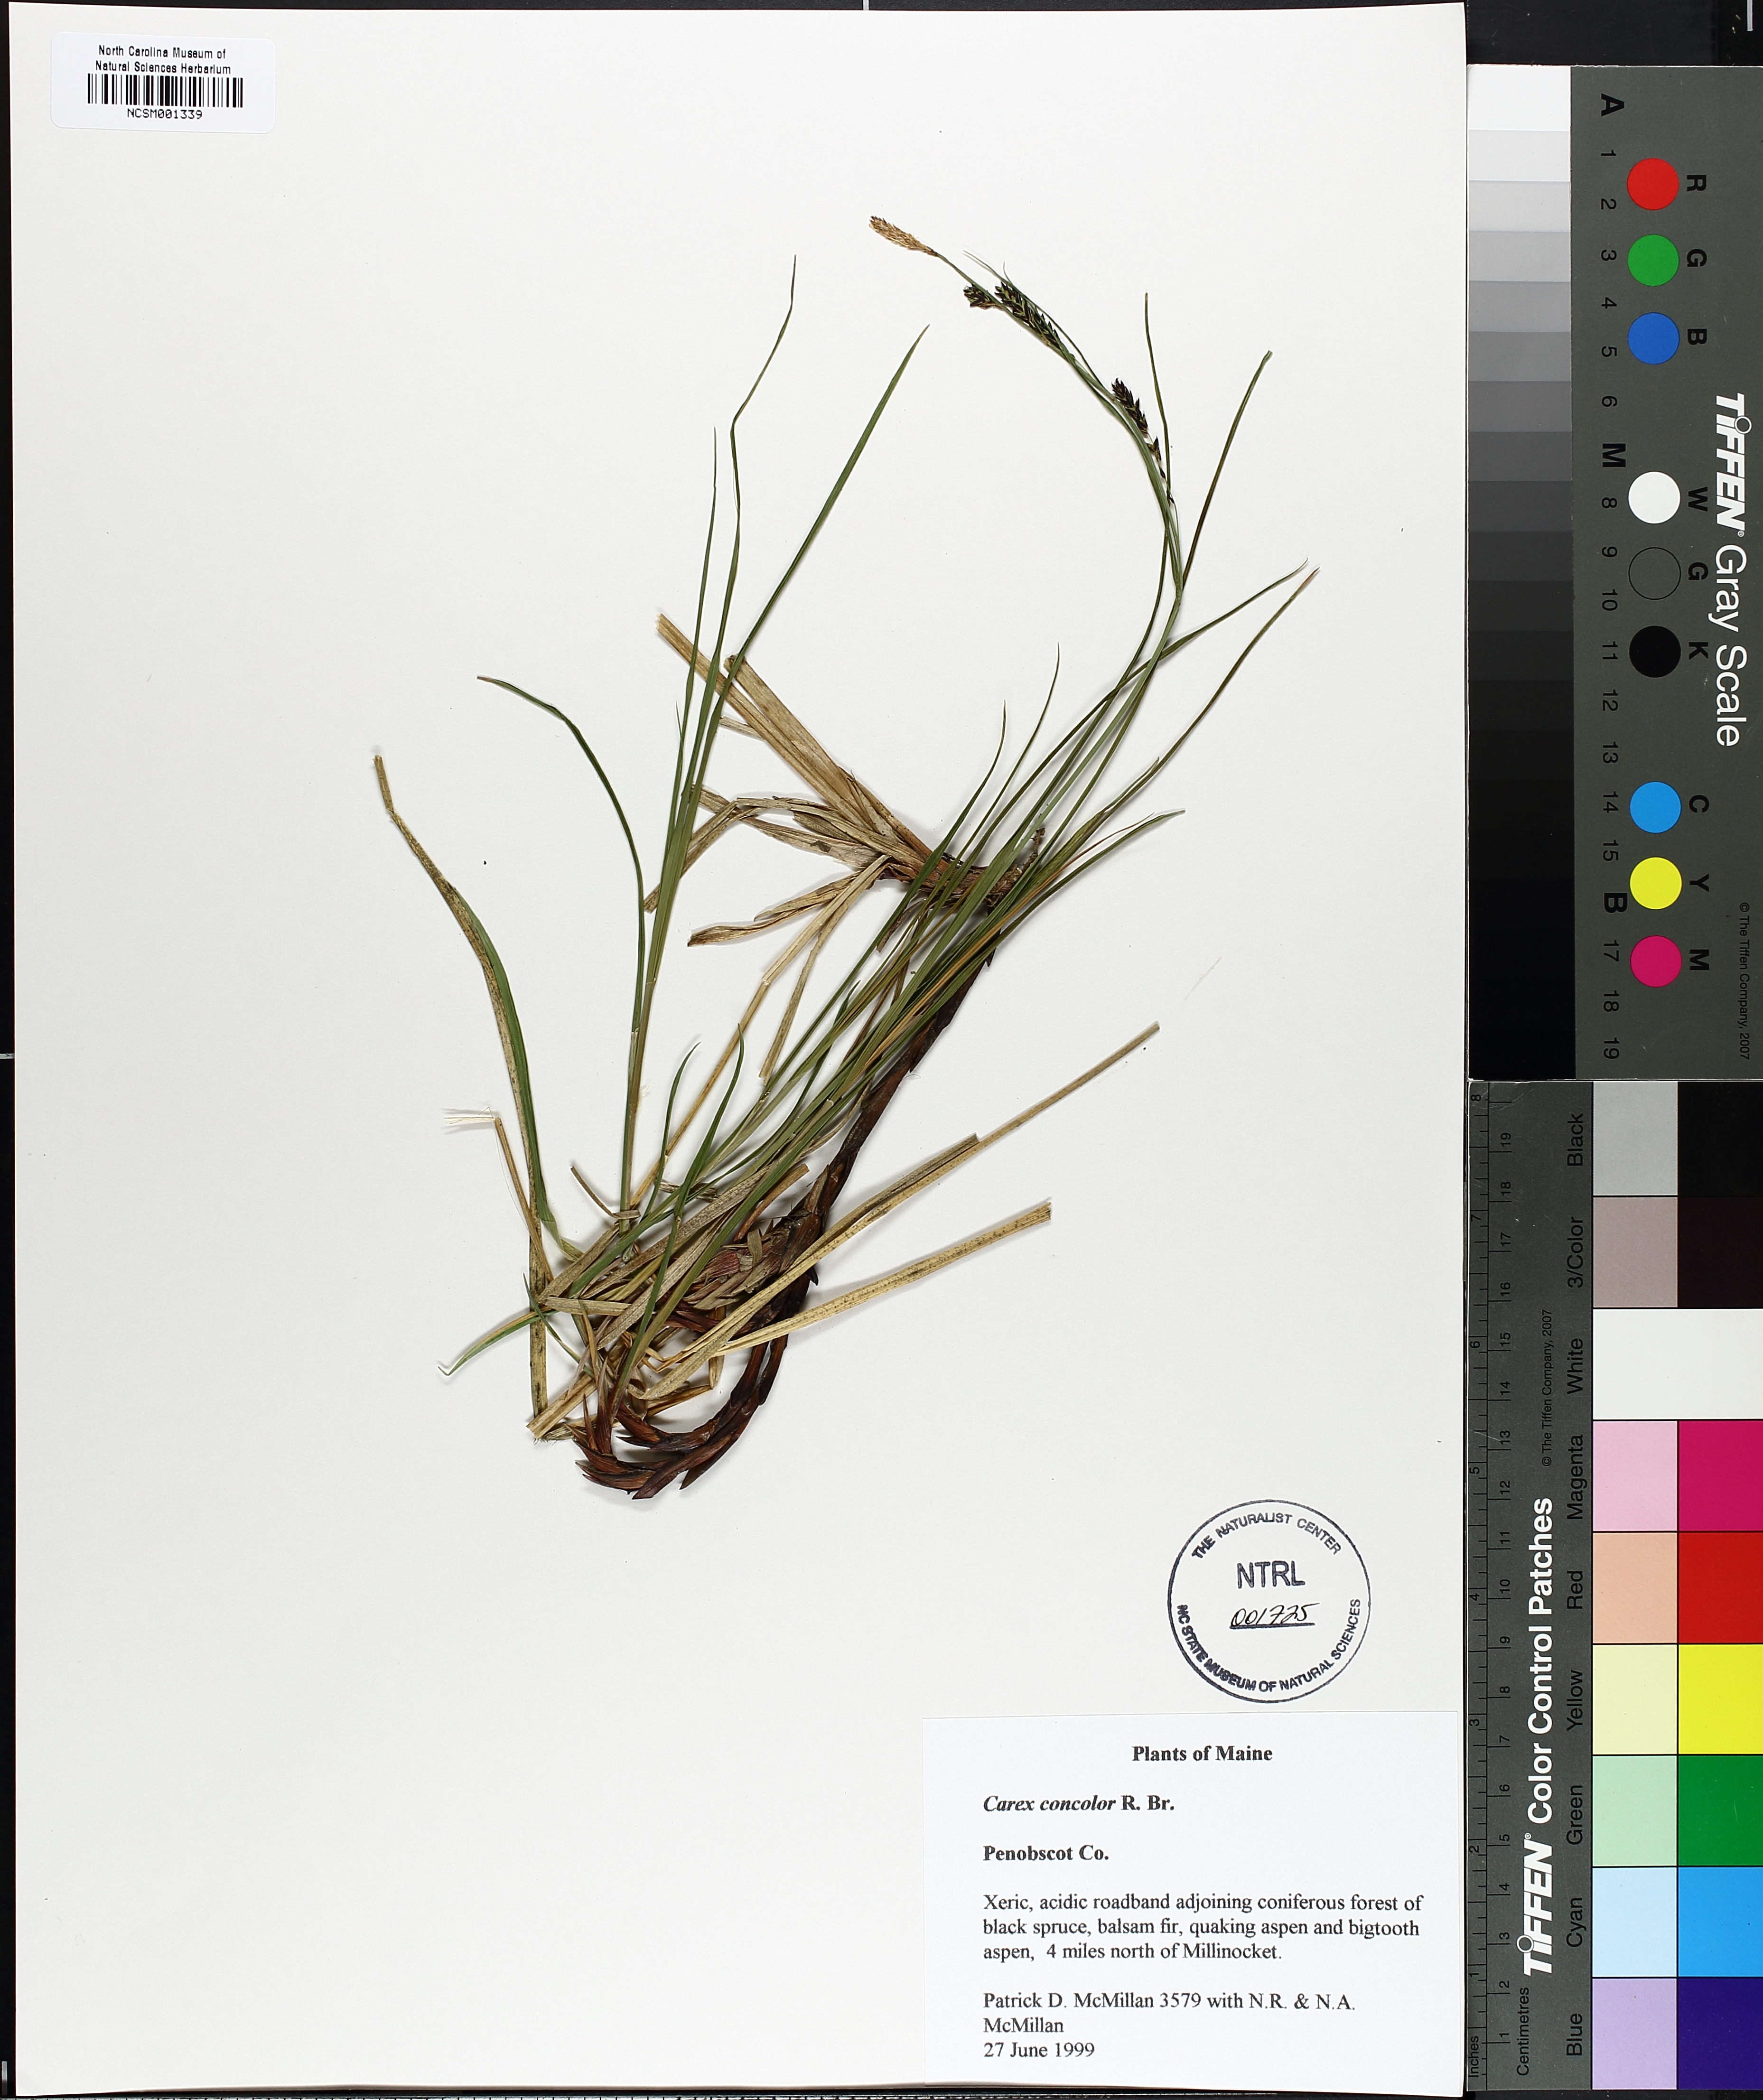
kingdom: Plantae
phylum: Tracheophyta
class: Liliopsida
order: Poales
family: Cyperaceae
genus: Carex
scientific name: Carex bigelowii
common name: Stiff sedge
